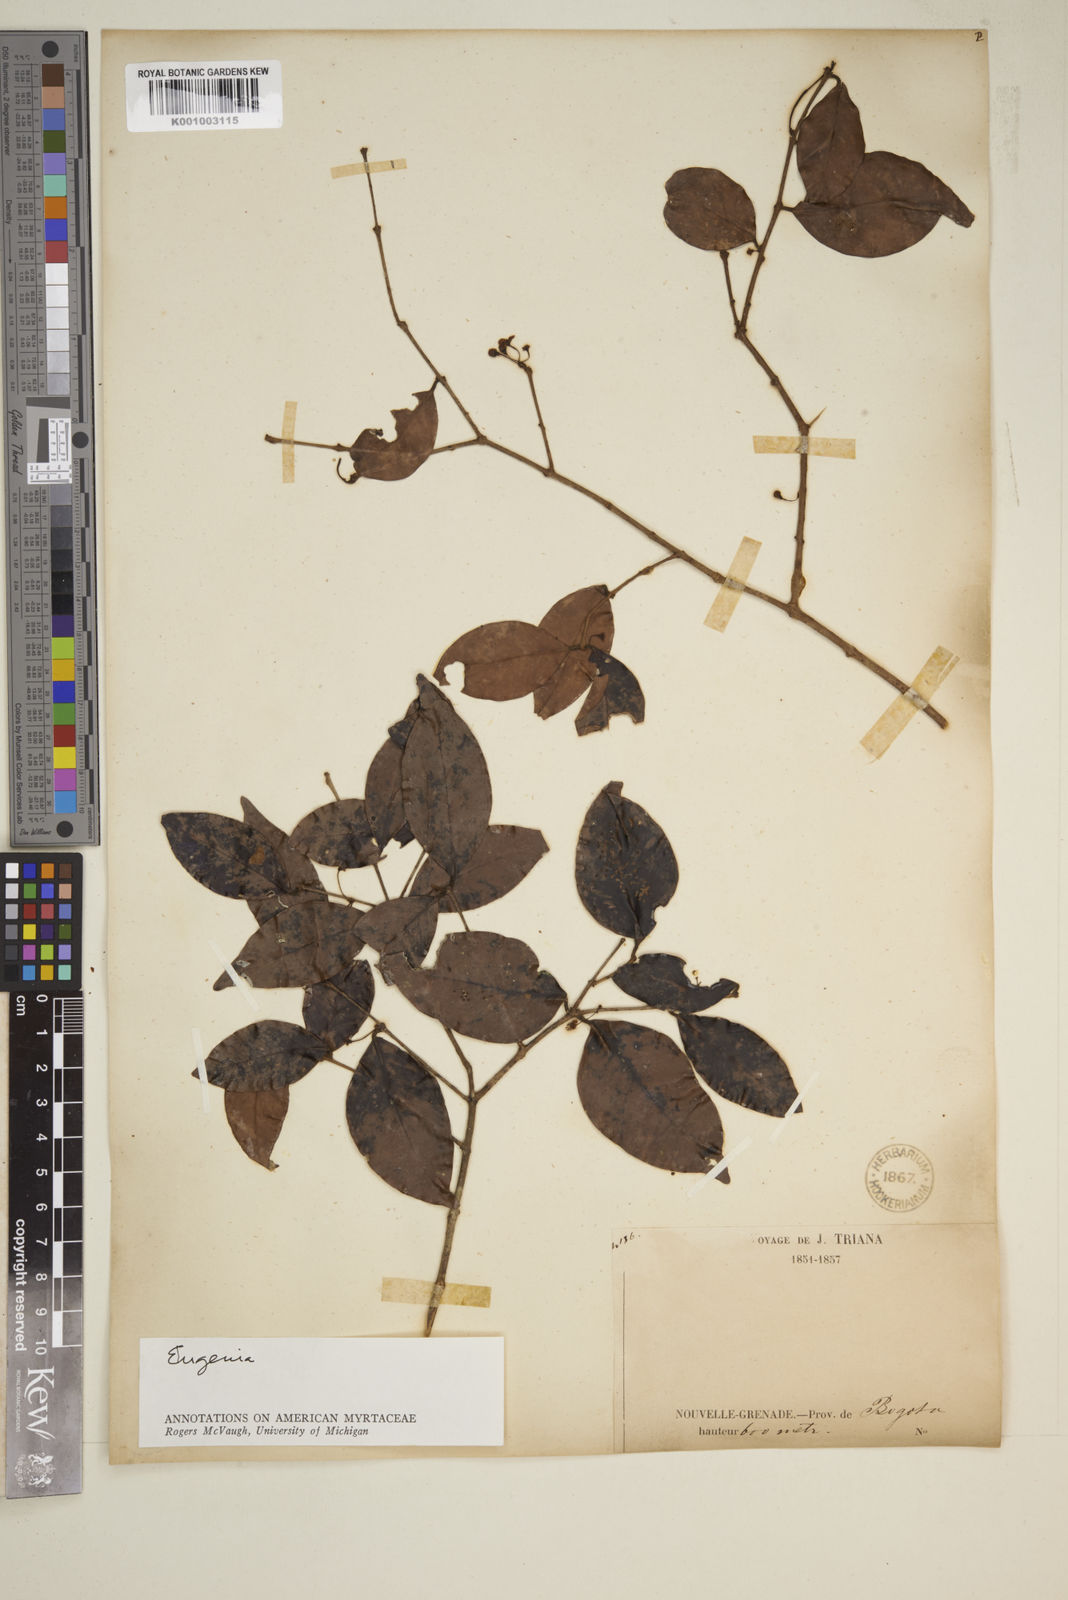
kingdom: Plantae
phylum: Tracheophyta
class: Magnoliopsida
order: Myrtales
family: Myrtaceae
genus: Eugenia
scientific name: Eugenia
